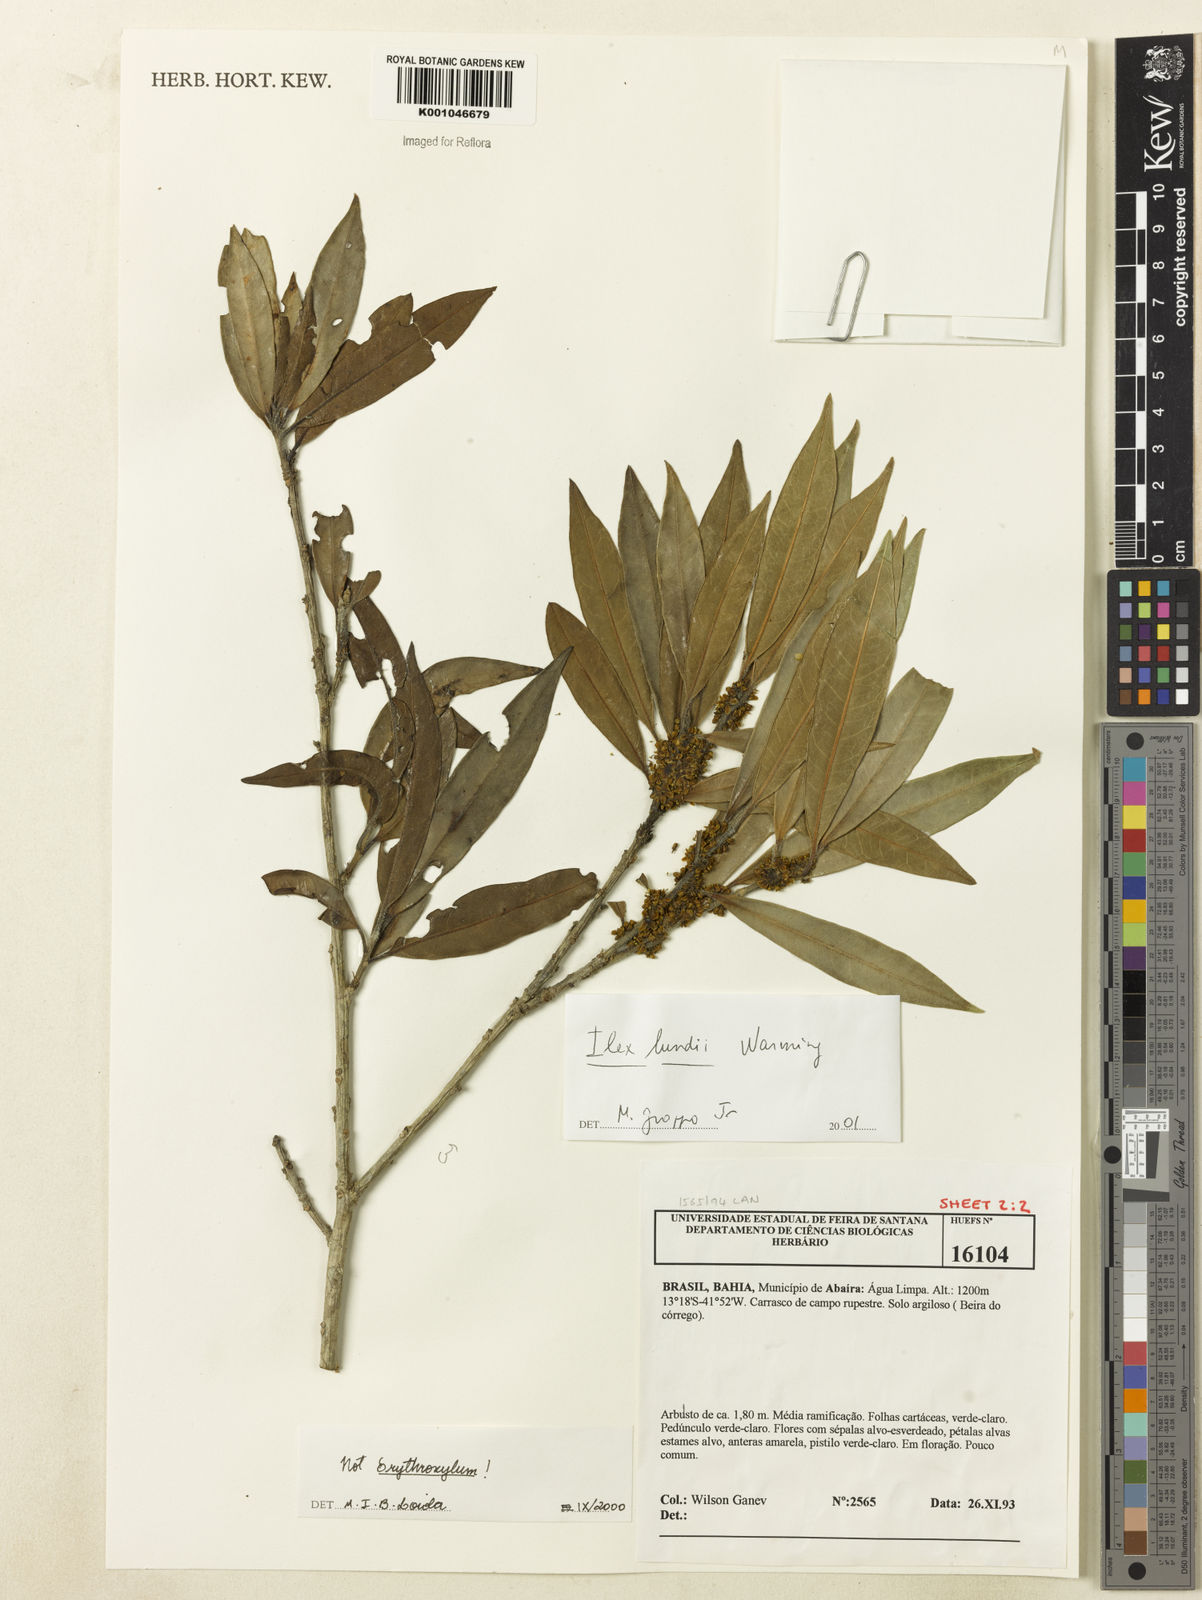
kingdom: Plantae
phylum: Tracheophyta
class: Magnoliopsida
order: Aquifoliales
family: Aquifoliaceae
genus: Ilex
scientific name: Ilex lundii
